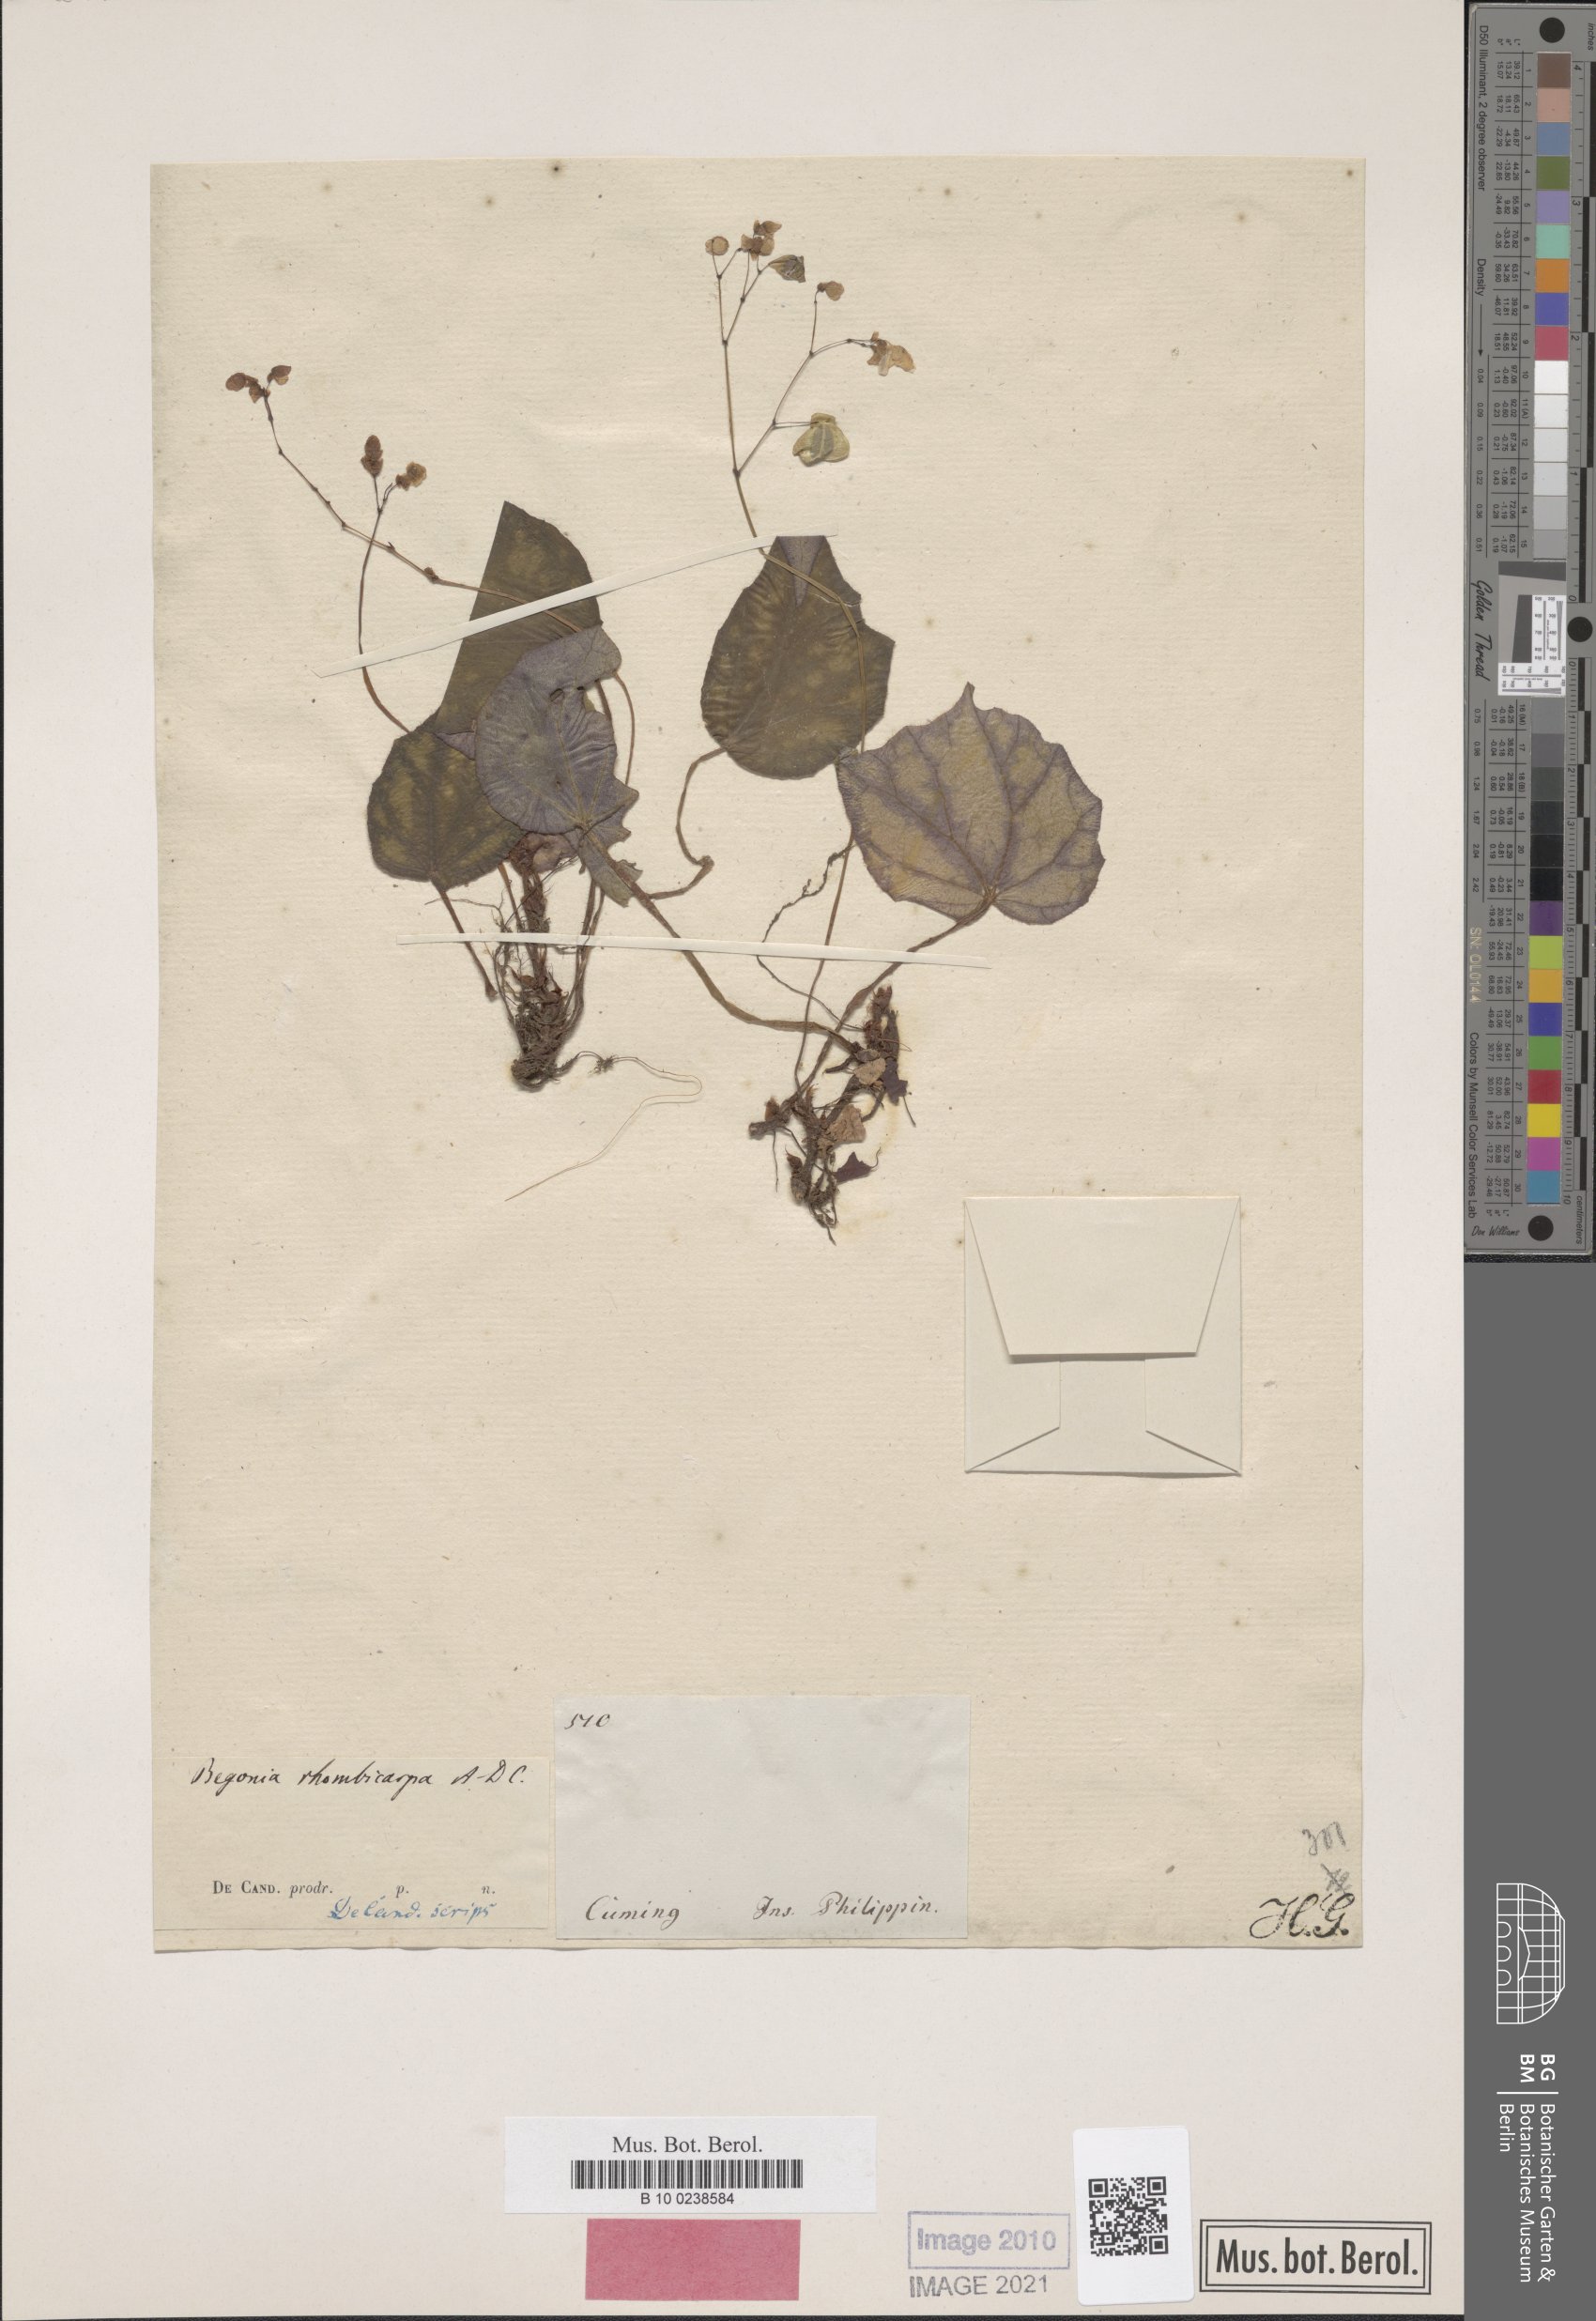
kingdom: Plantae
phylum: Tracheophyta
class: Magnoliopsida
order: Cucurbitales
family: Begoniaceae
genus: Begonia
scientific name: Begonia nigritarum
